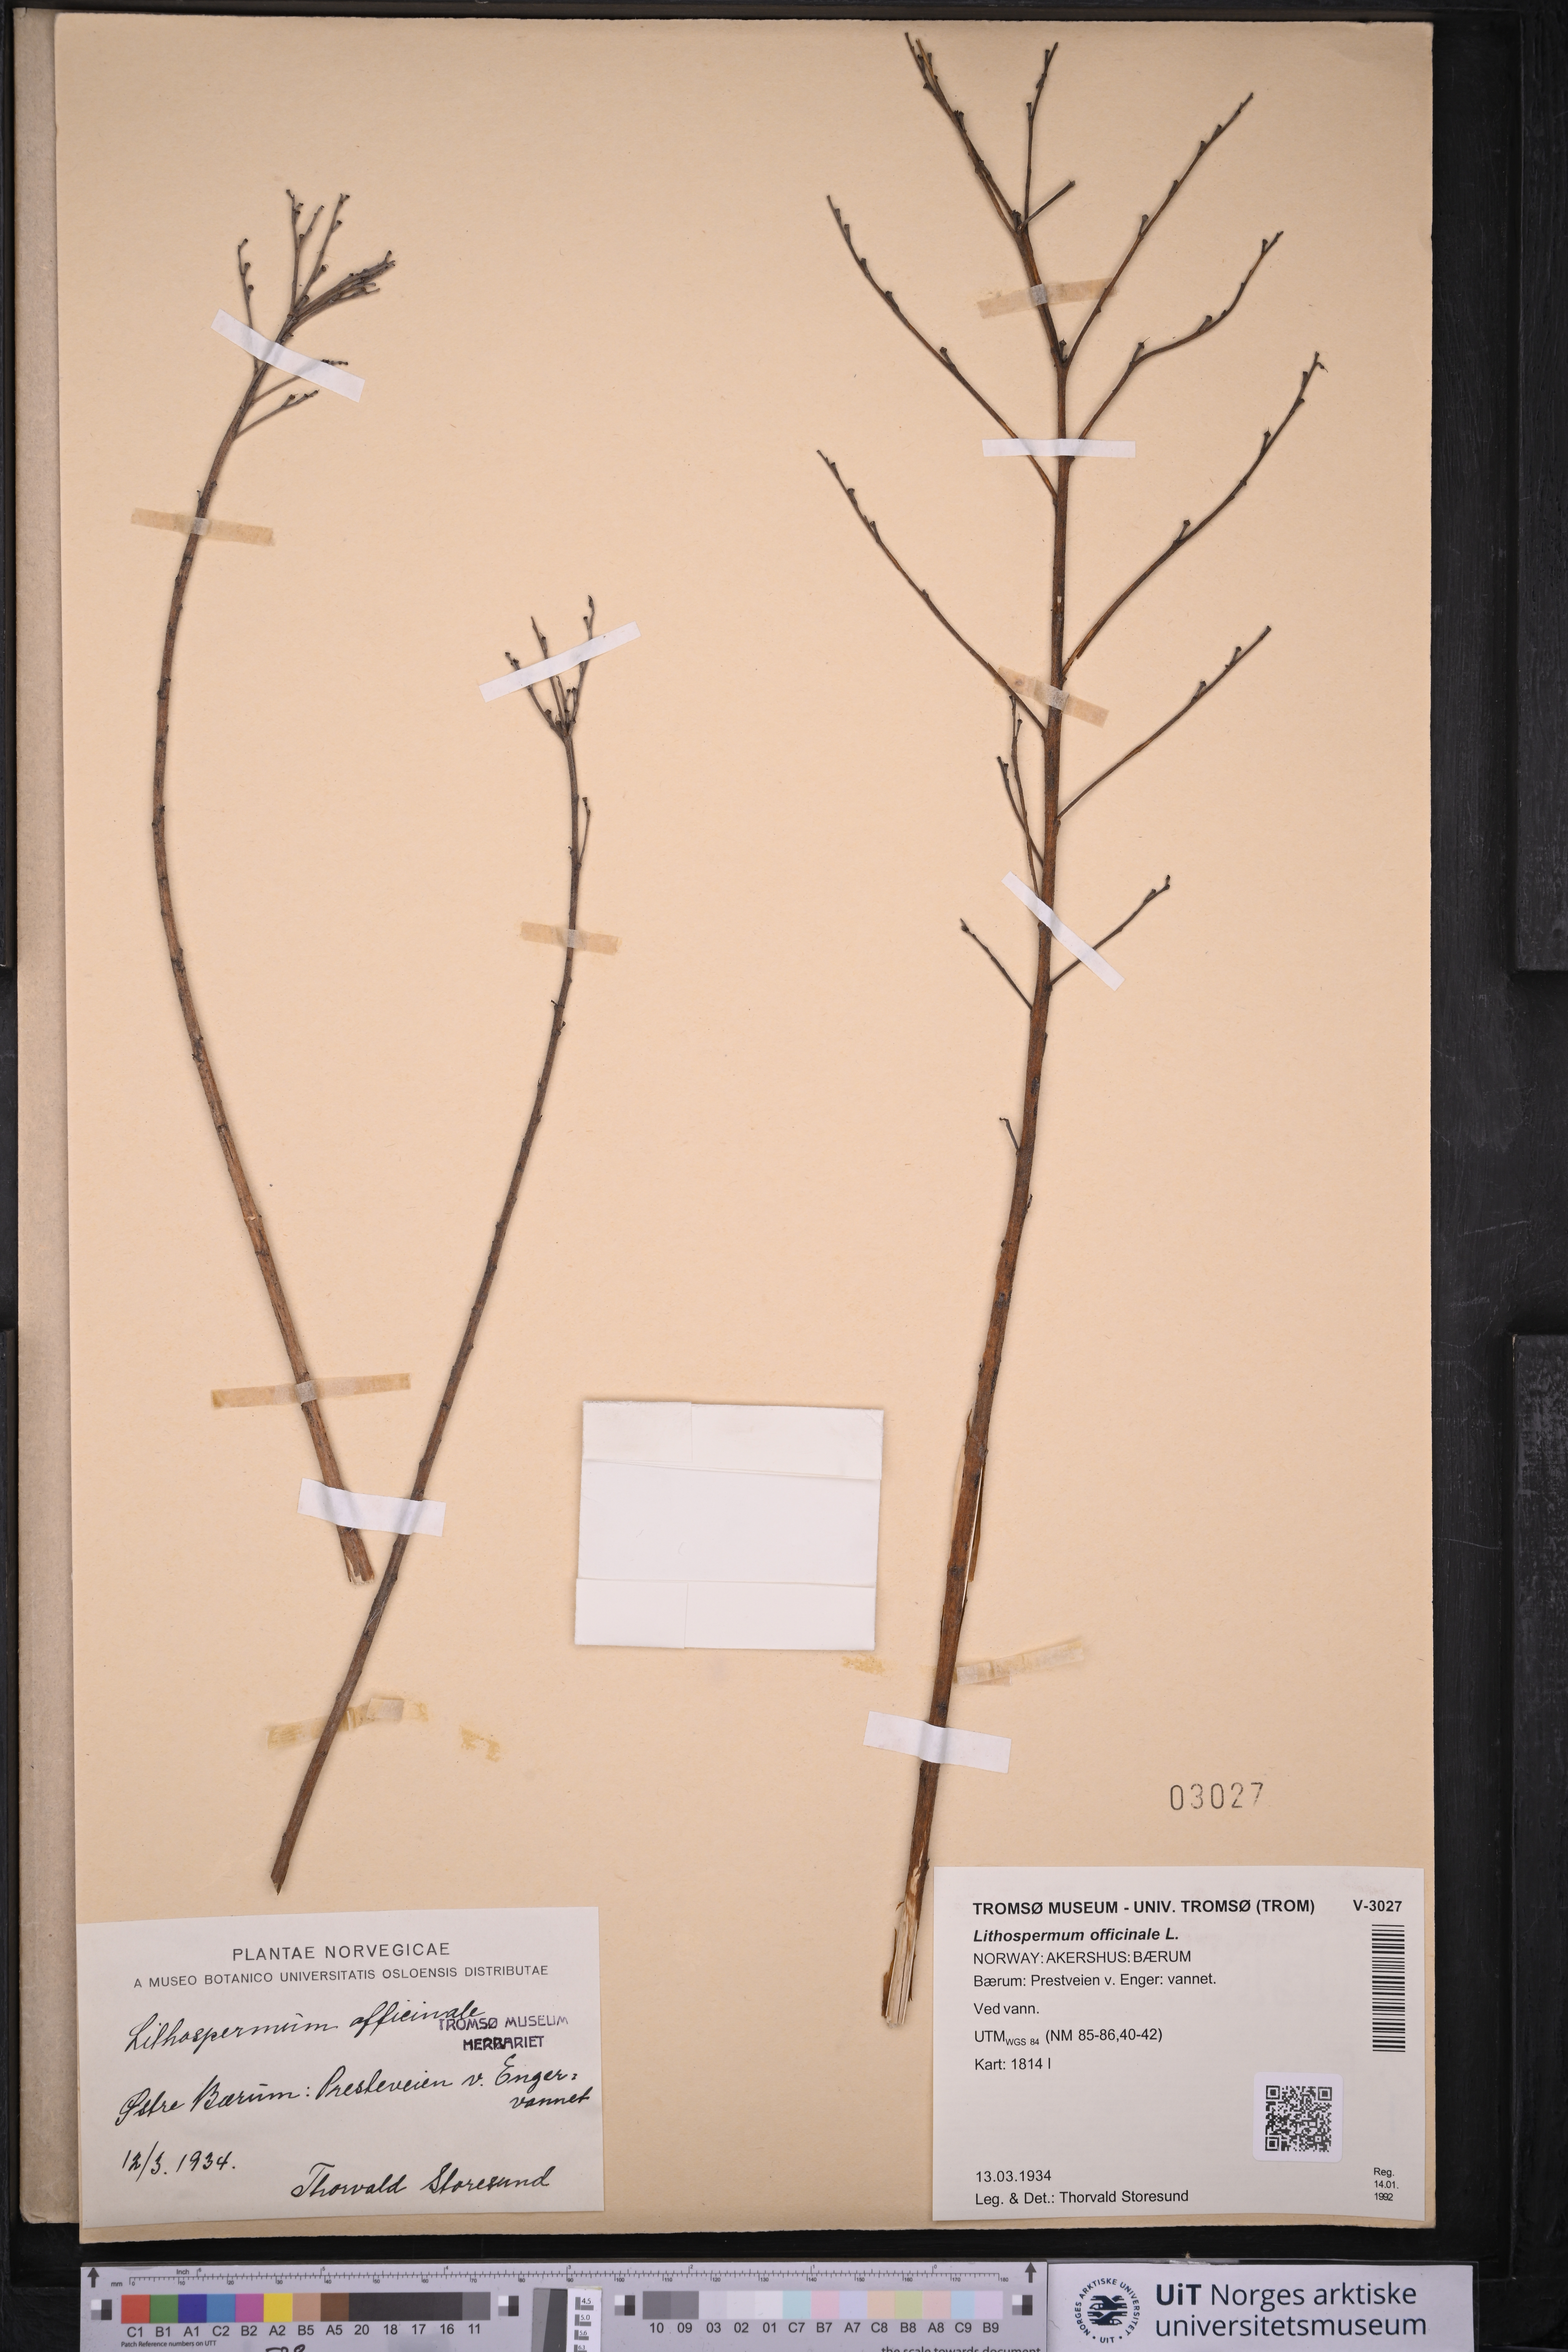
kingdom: Plantae
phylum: Tracheophyta
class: Magnoliopsida
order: Boraginales
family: Boraginaceae
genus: Lithospermum
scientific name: Lithospermum officinale
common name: Common gromwell
